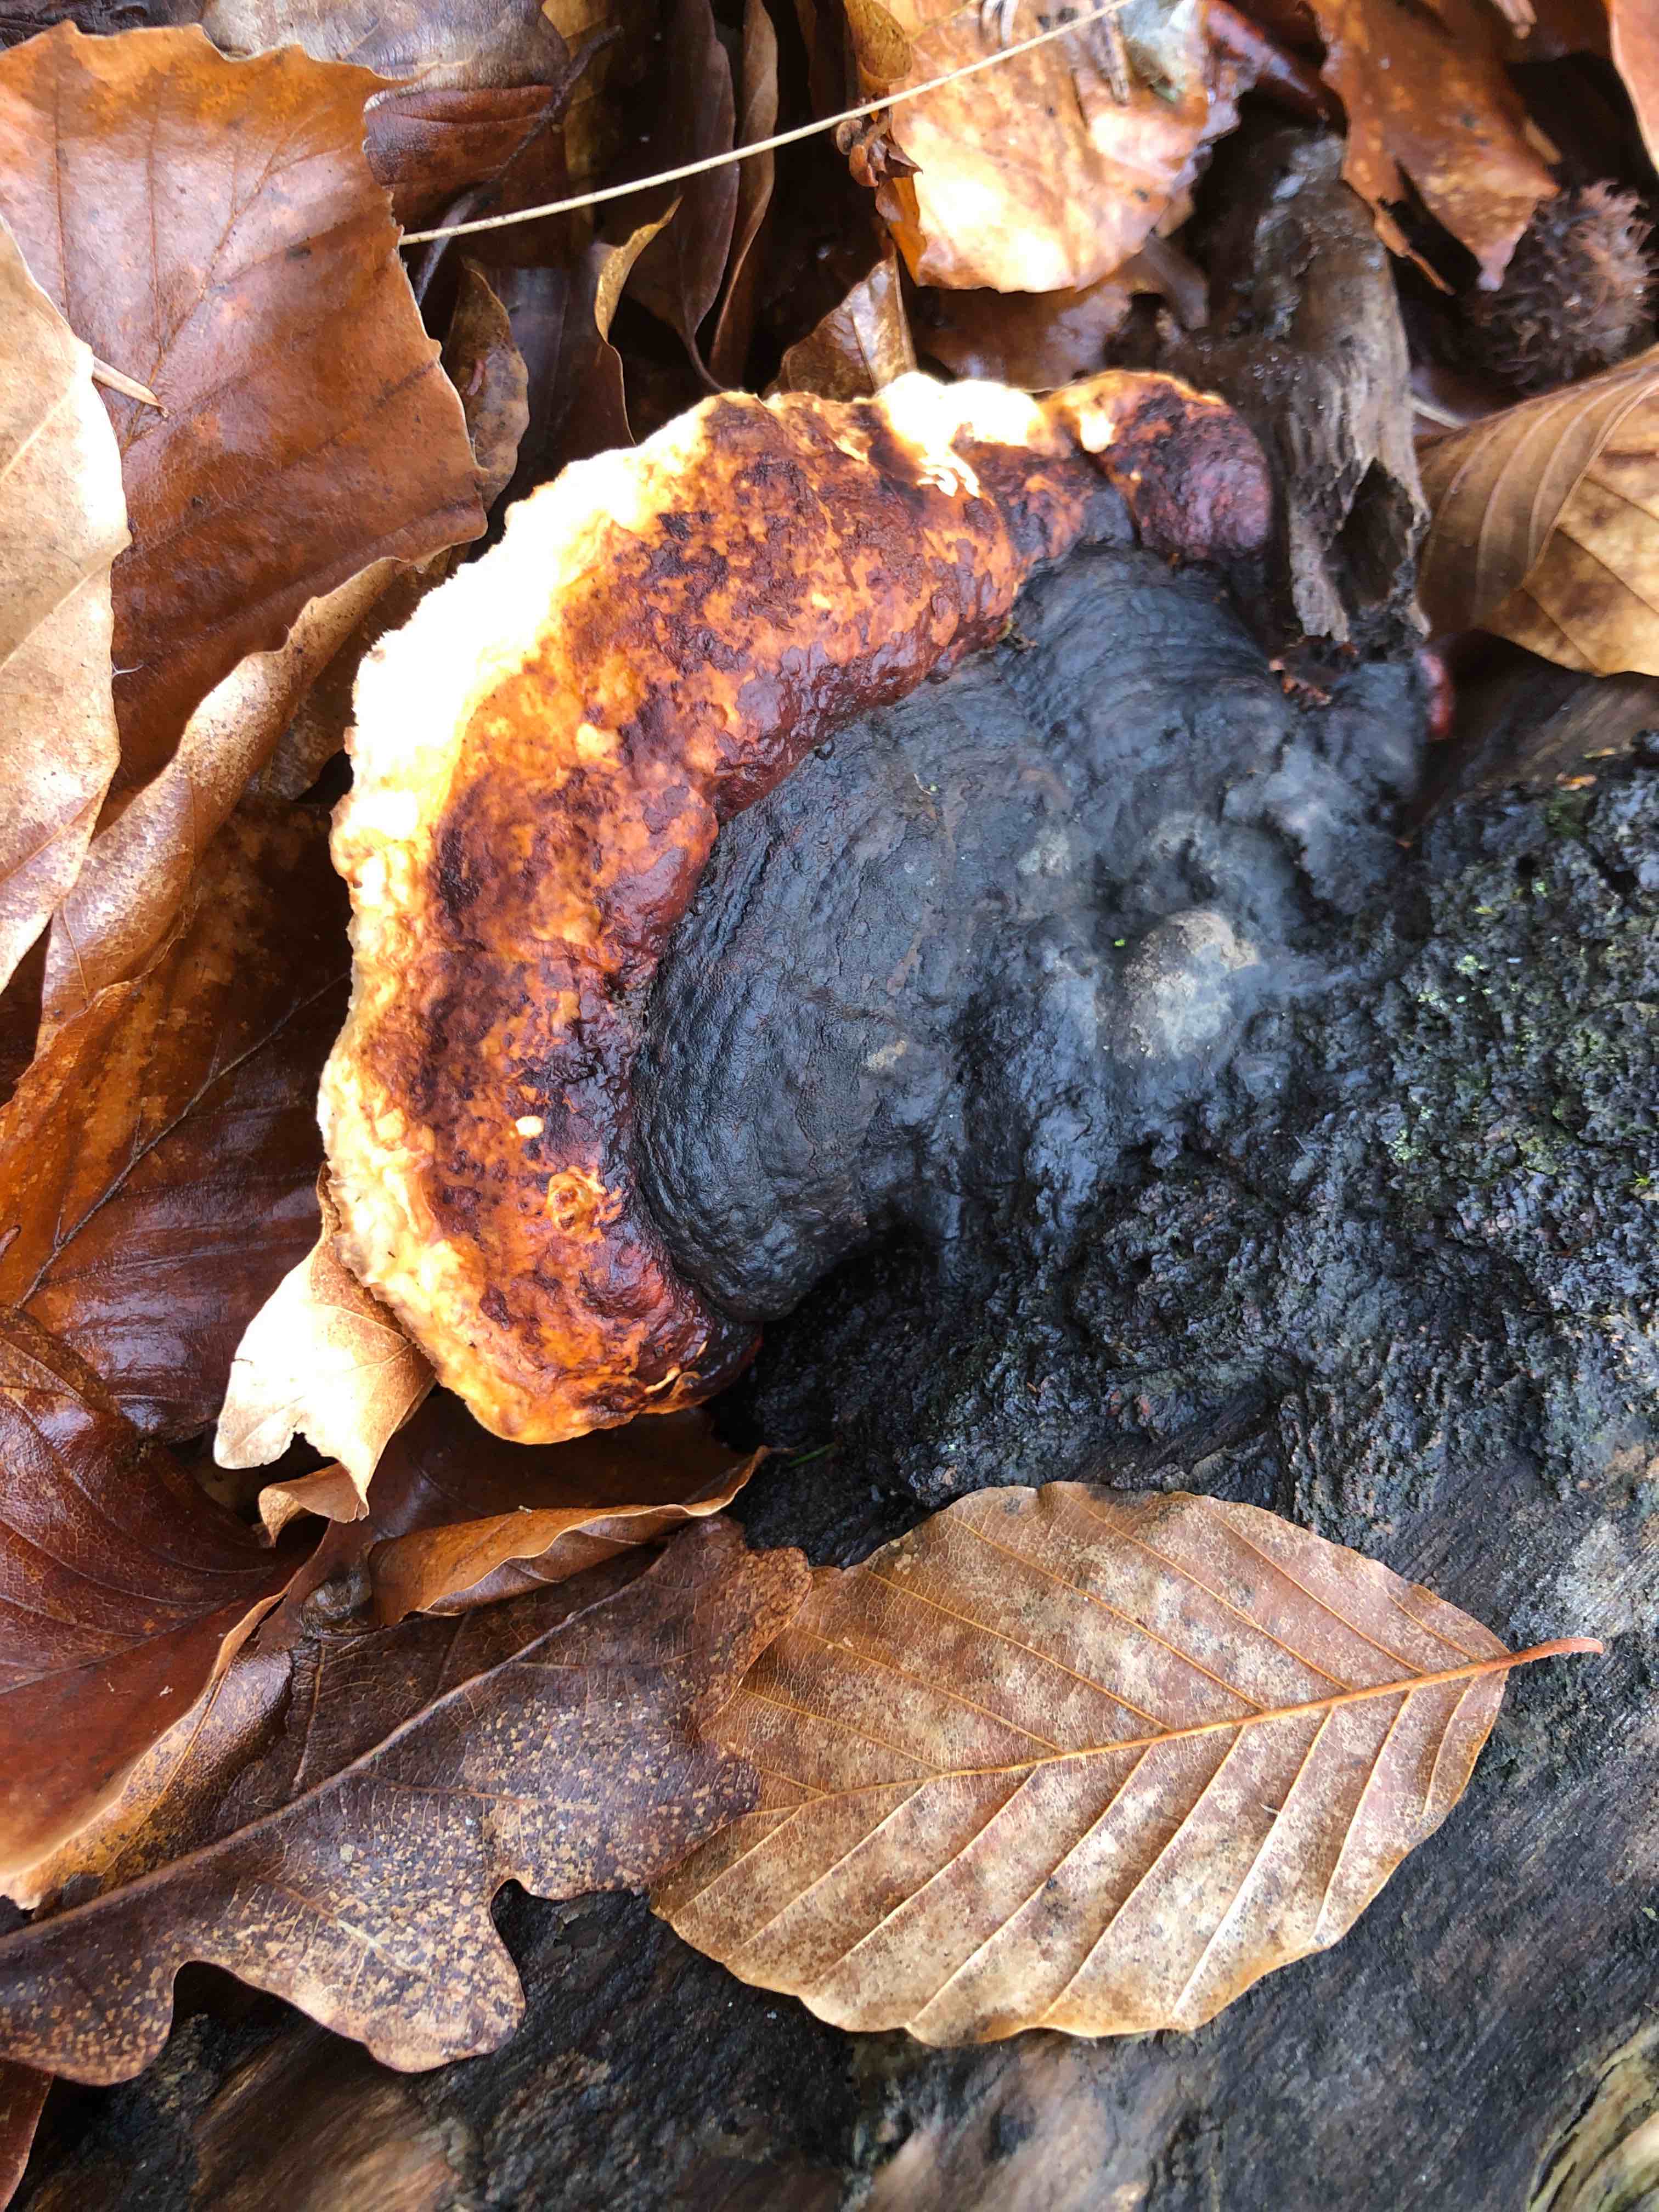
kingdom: Fungi
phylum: Basidiomycota
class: Agaricomycetes
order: Polyporales
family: Fomitopsidaceae
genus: Fomitopsis
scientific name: Fomitopsis pinicola
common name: randbæltet hovporesvamp
